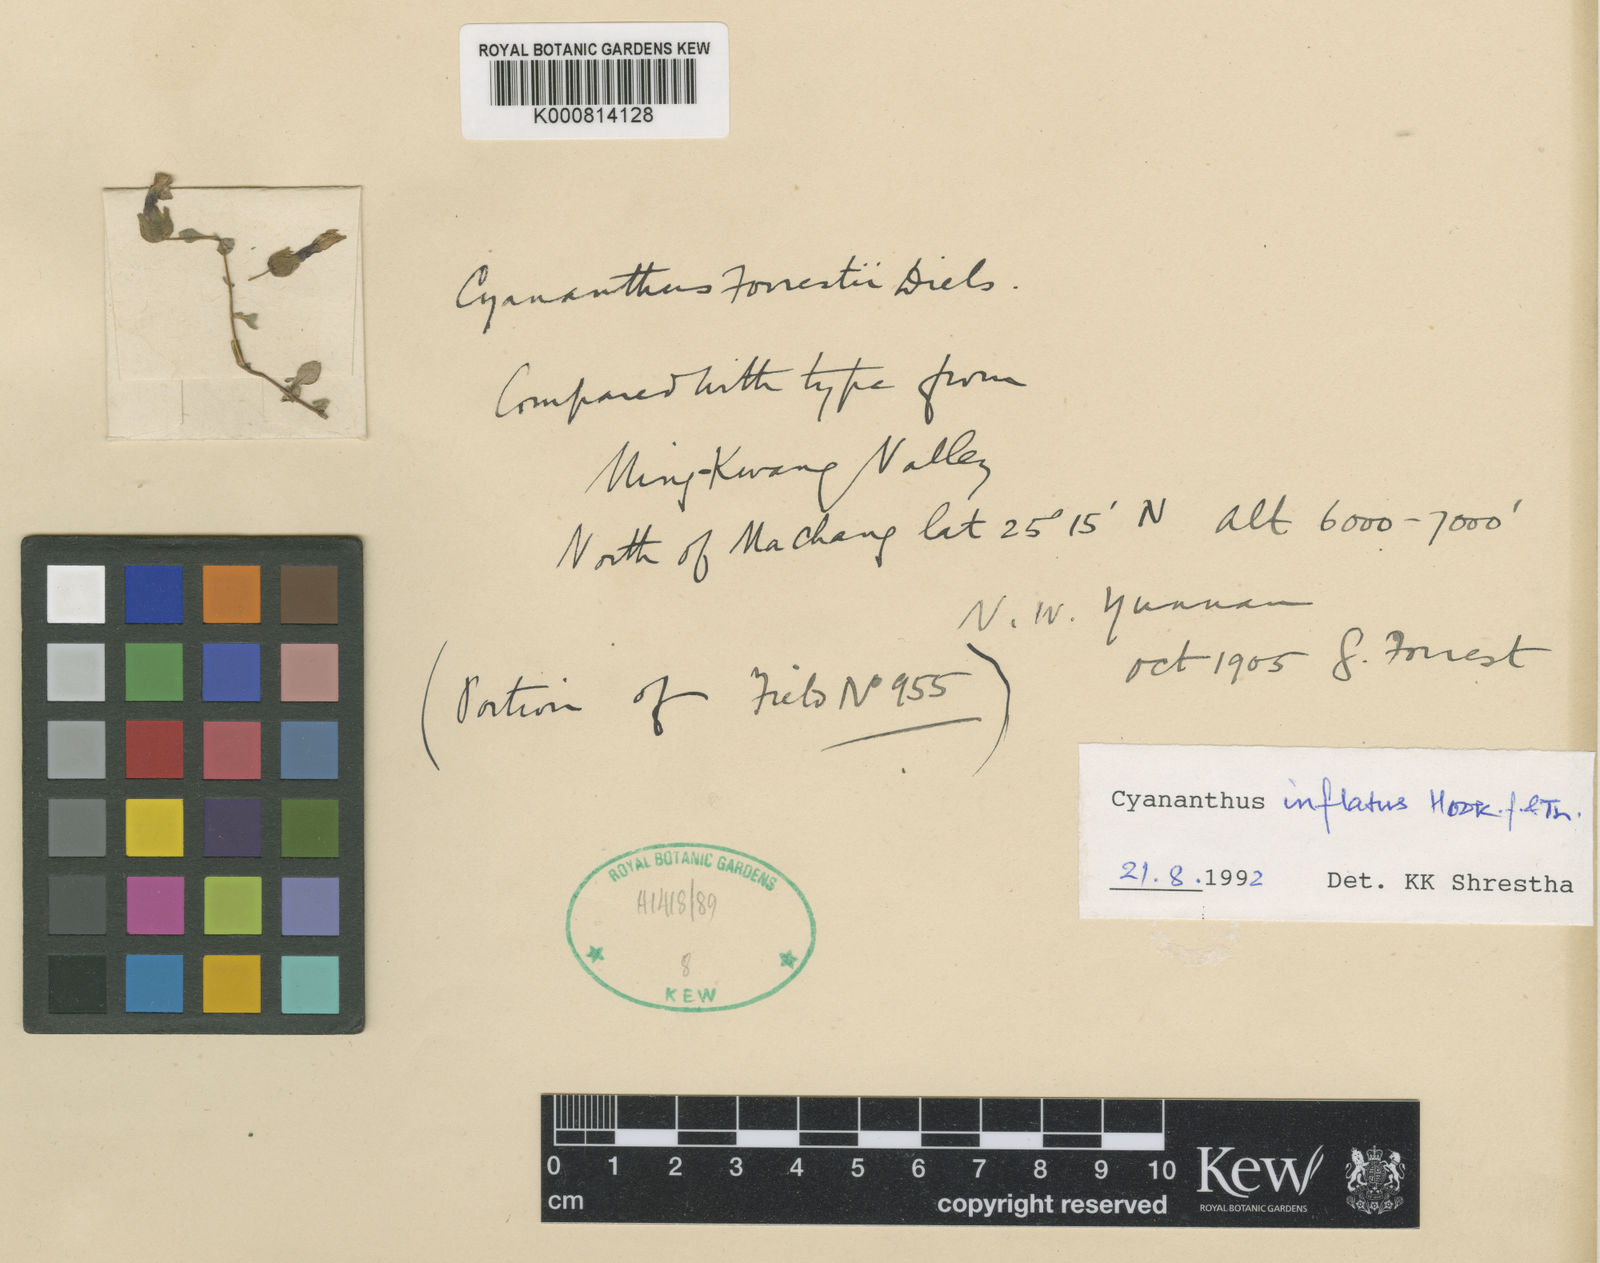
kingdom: Plantae
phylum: Tracheophyta
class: Magnoliopsida
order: Asterales
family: Campanulaceae
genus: Cyananthus
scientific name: Cyananthus inflatus
